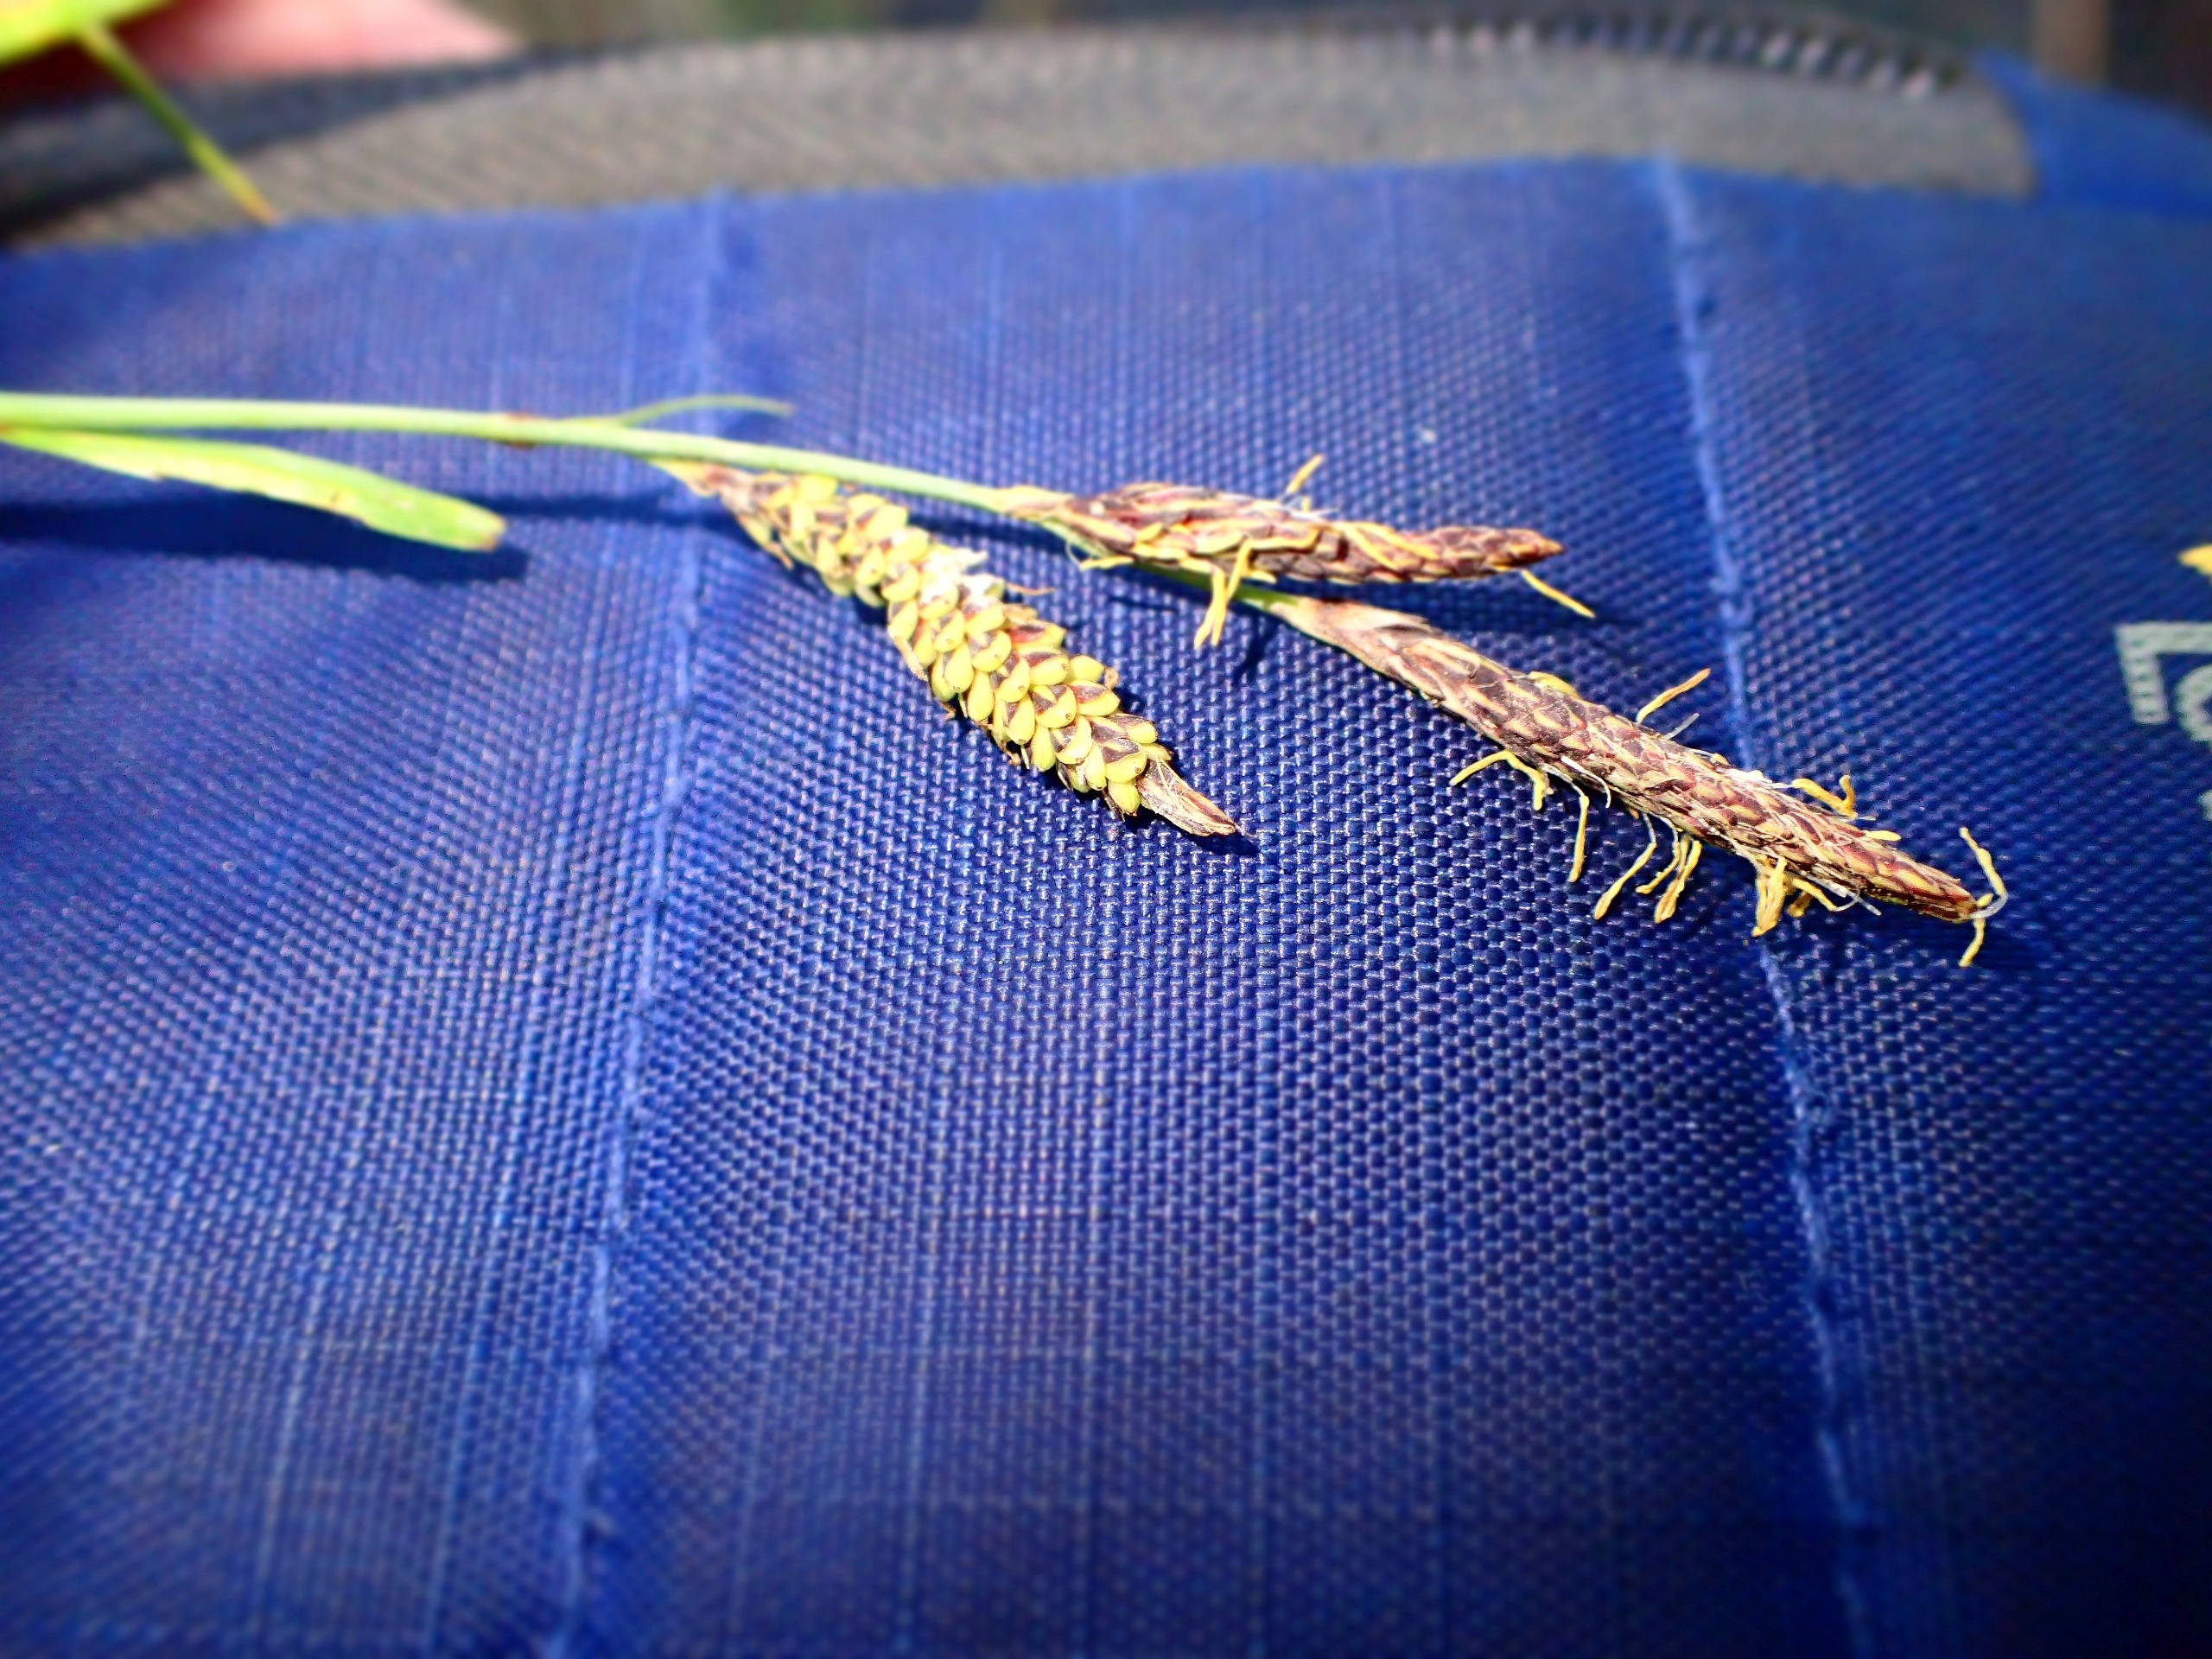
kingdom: Plantae
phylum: Tracheophyta
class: Liliopsida
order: Poales
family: Cyperaceae
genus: Carex
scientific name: Carex flacca
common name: Blågrøn star
